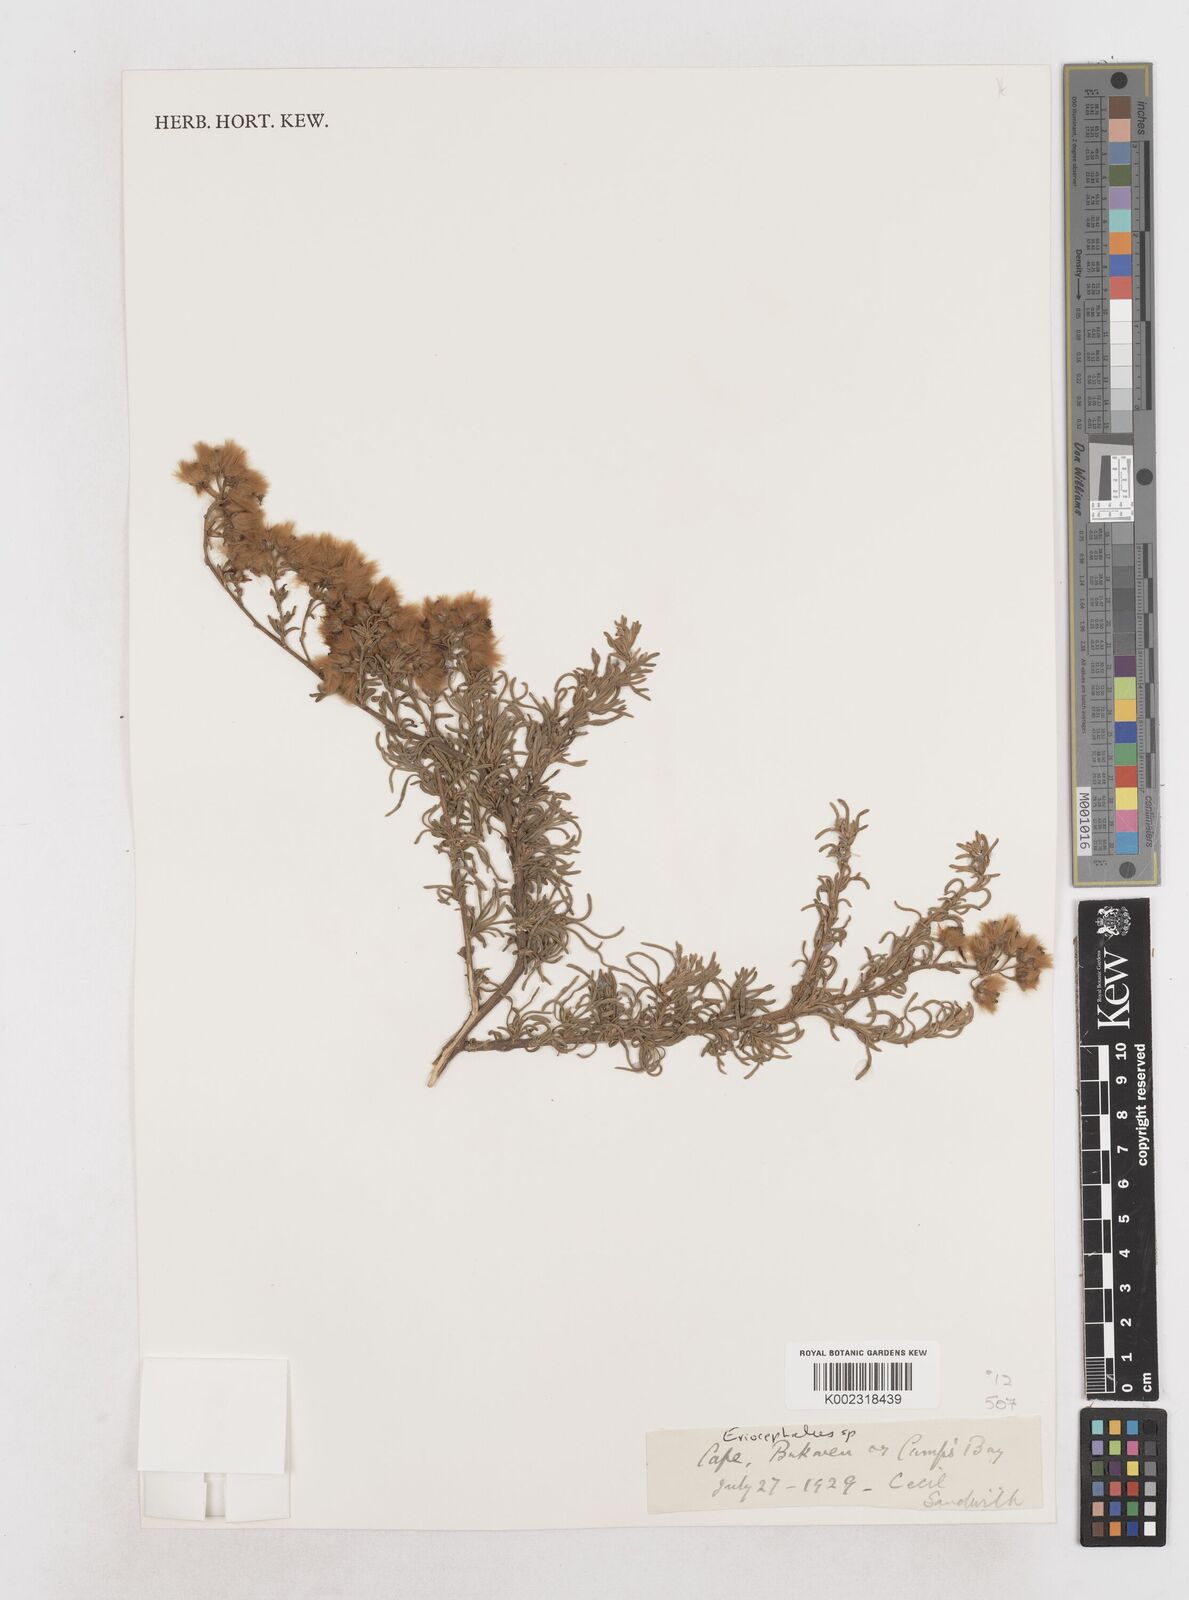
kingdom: Plantae
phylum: Tracheophyta
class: Magnoliopsida
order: Asterales
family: Asteraceae
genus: Eriocephalus
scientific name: Eriocephalus
